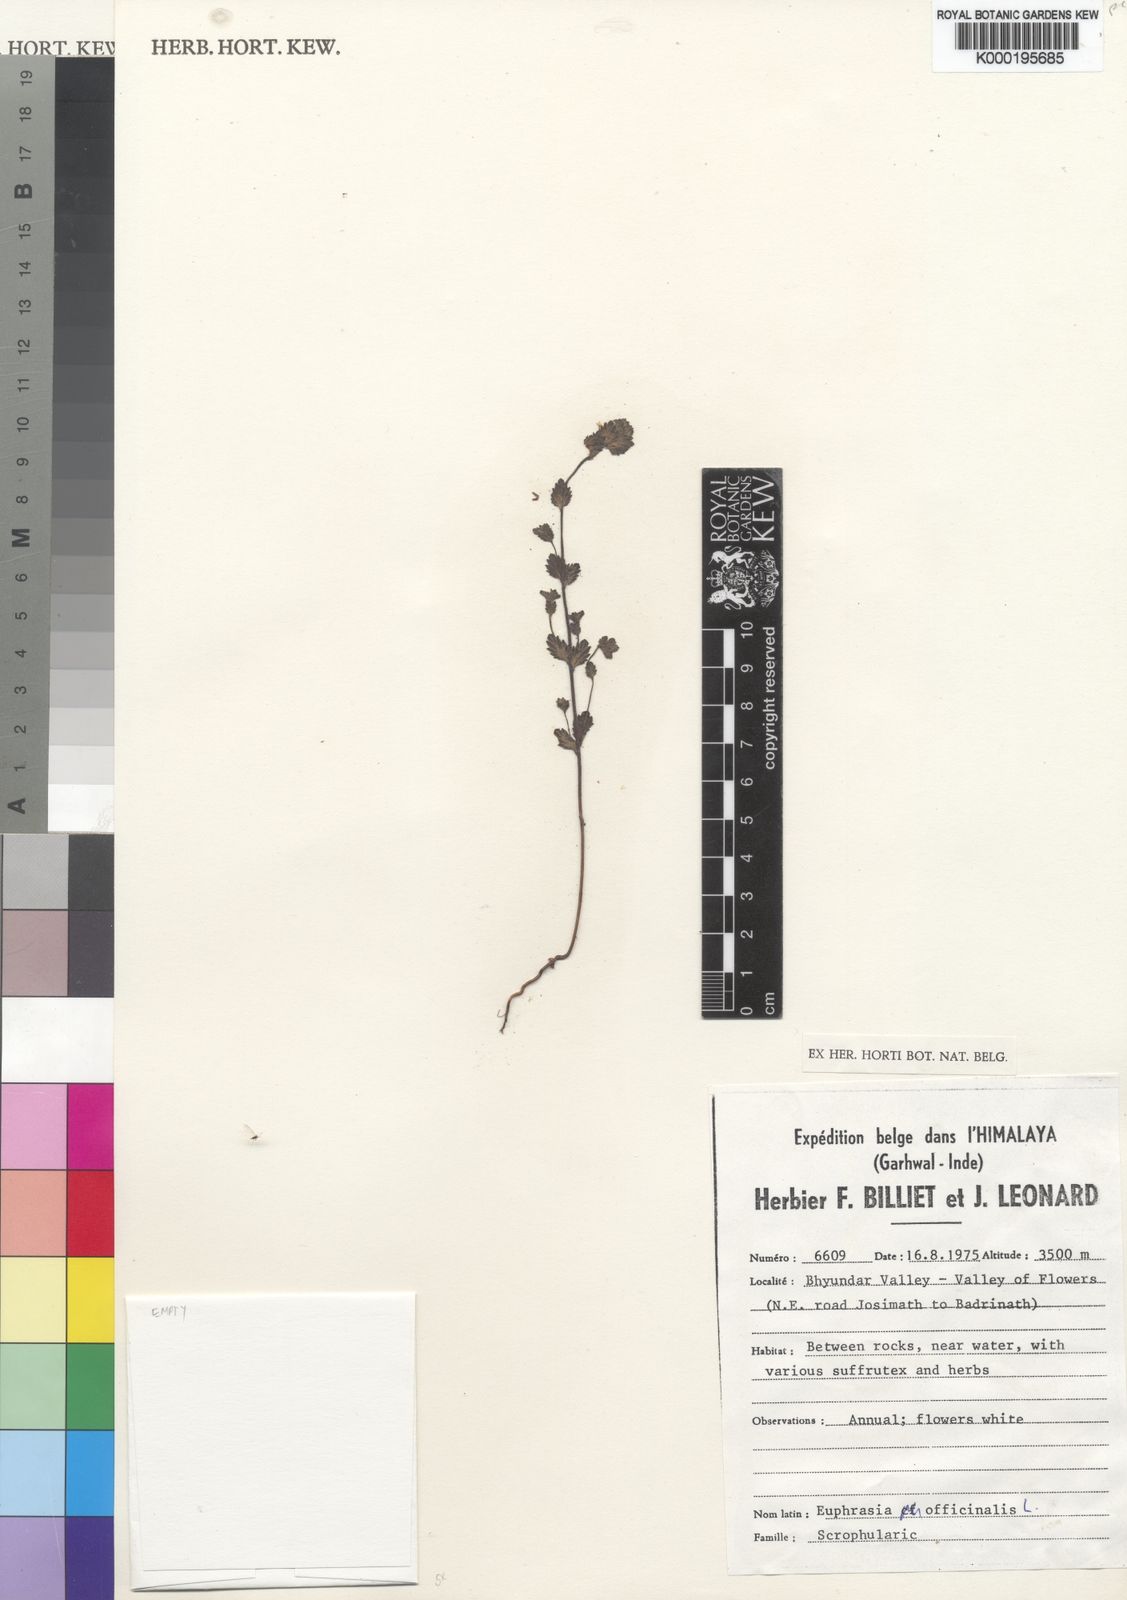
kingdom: Plantae
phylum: Tracheophyta
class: Magnoliopsida
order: Lamiales
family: Orobanchaceae
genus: Euphrasia
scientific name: Euphrasia officinalis
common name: Eyebright
